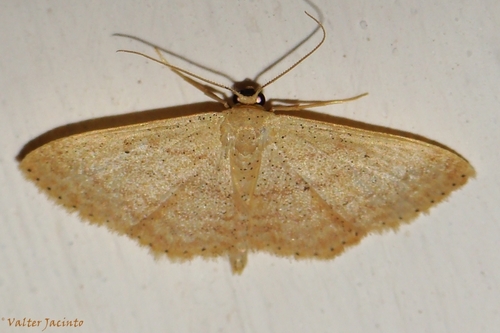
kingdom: Animalia
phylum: Arthropoda
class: Insecta
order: Lepidoptera
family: Geometridae
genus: Idaea
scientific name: Idaea obsoletaria
